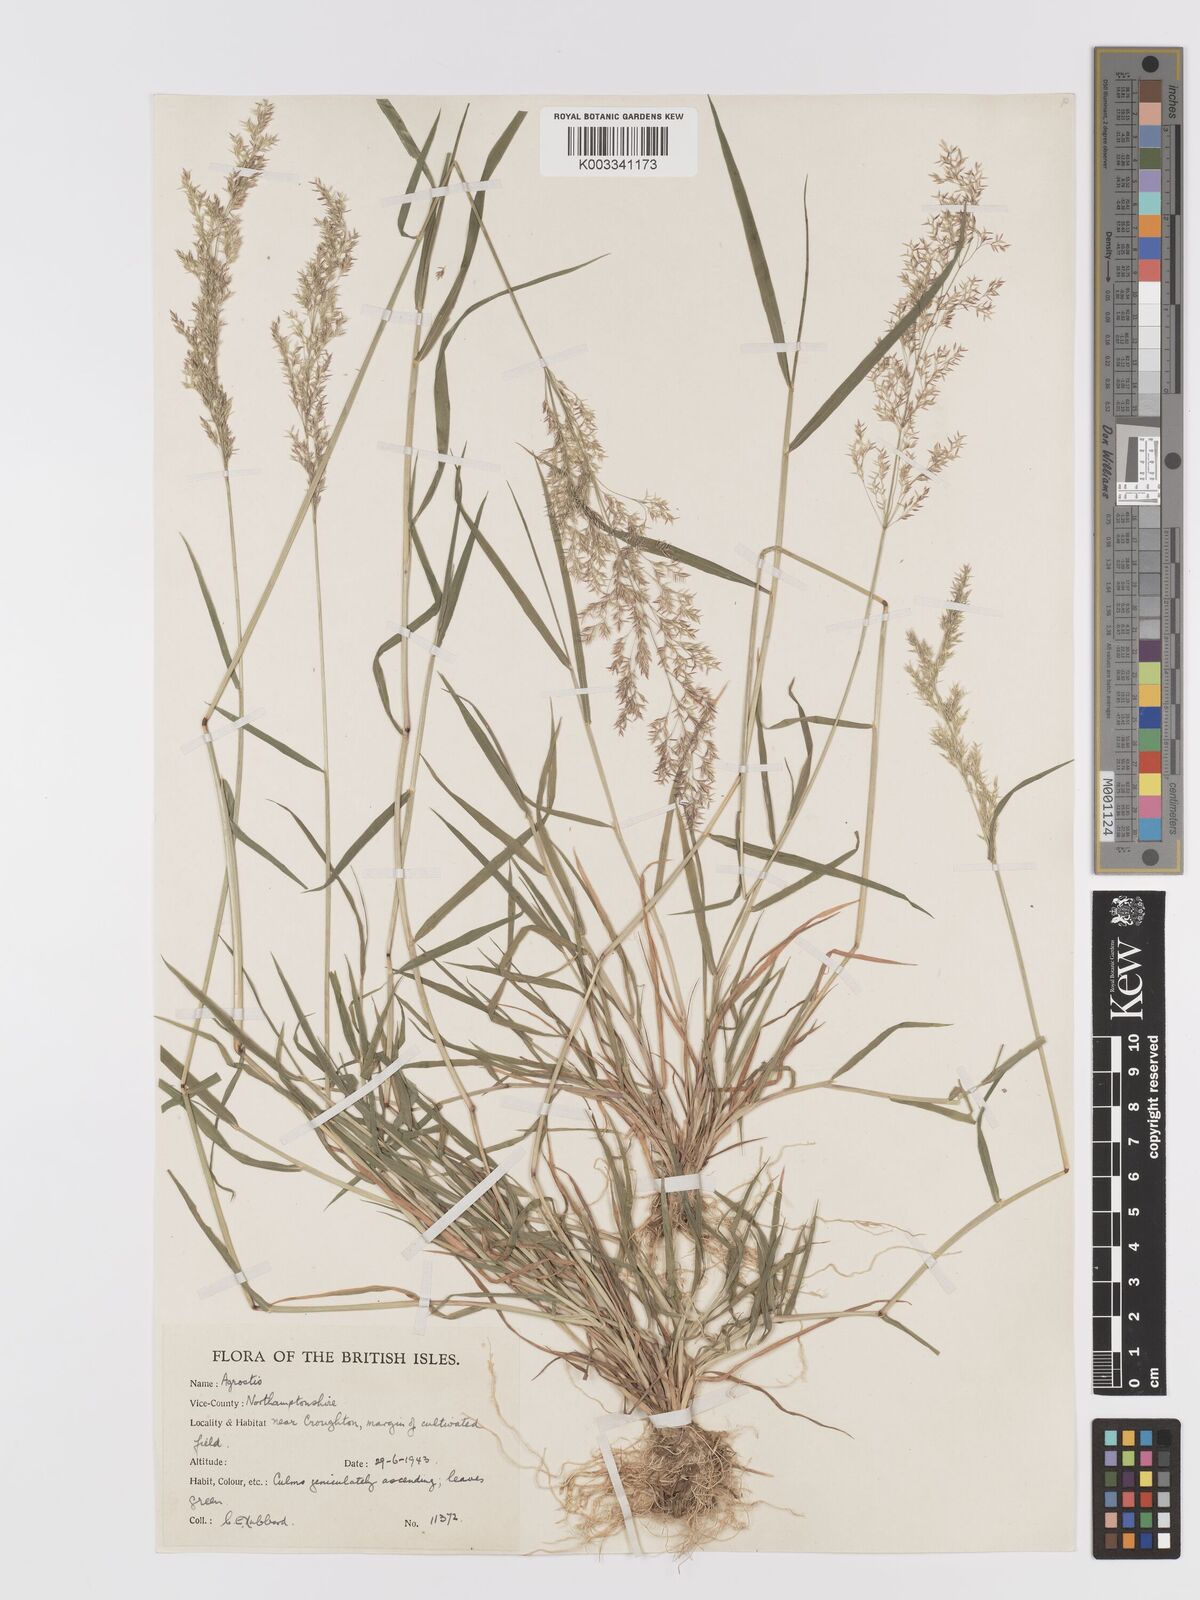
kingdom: Plantae
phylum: Tracheophyta
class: Liliopsida
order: Poales
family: Poaceae
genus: Agrostis
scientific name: Agrostis gigantea
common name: Black bent
